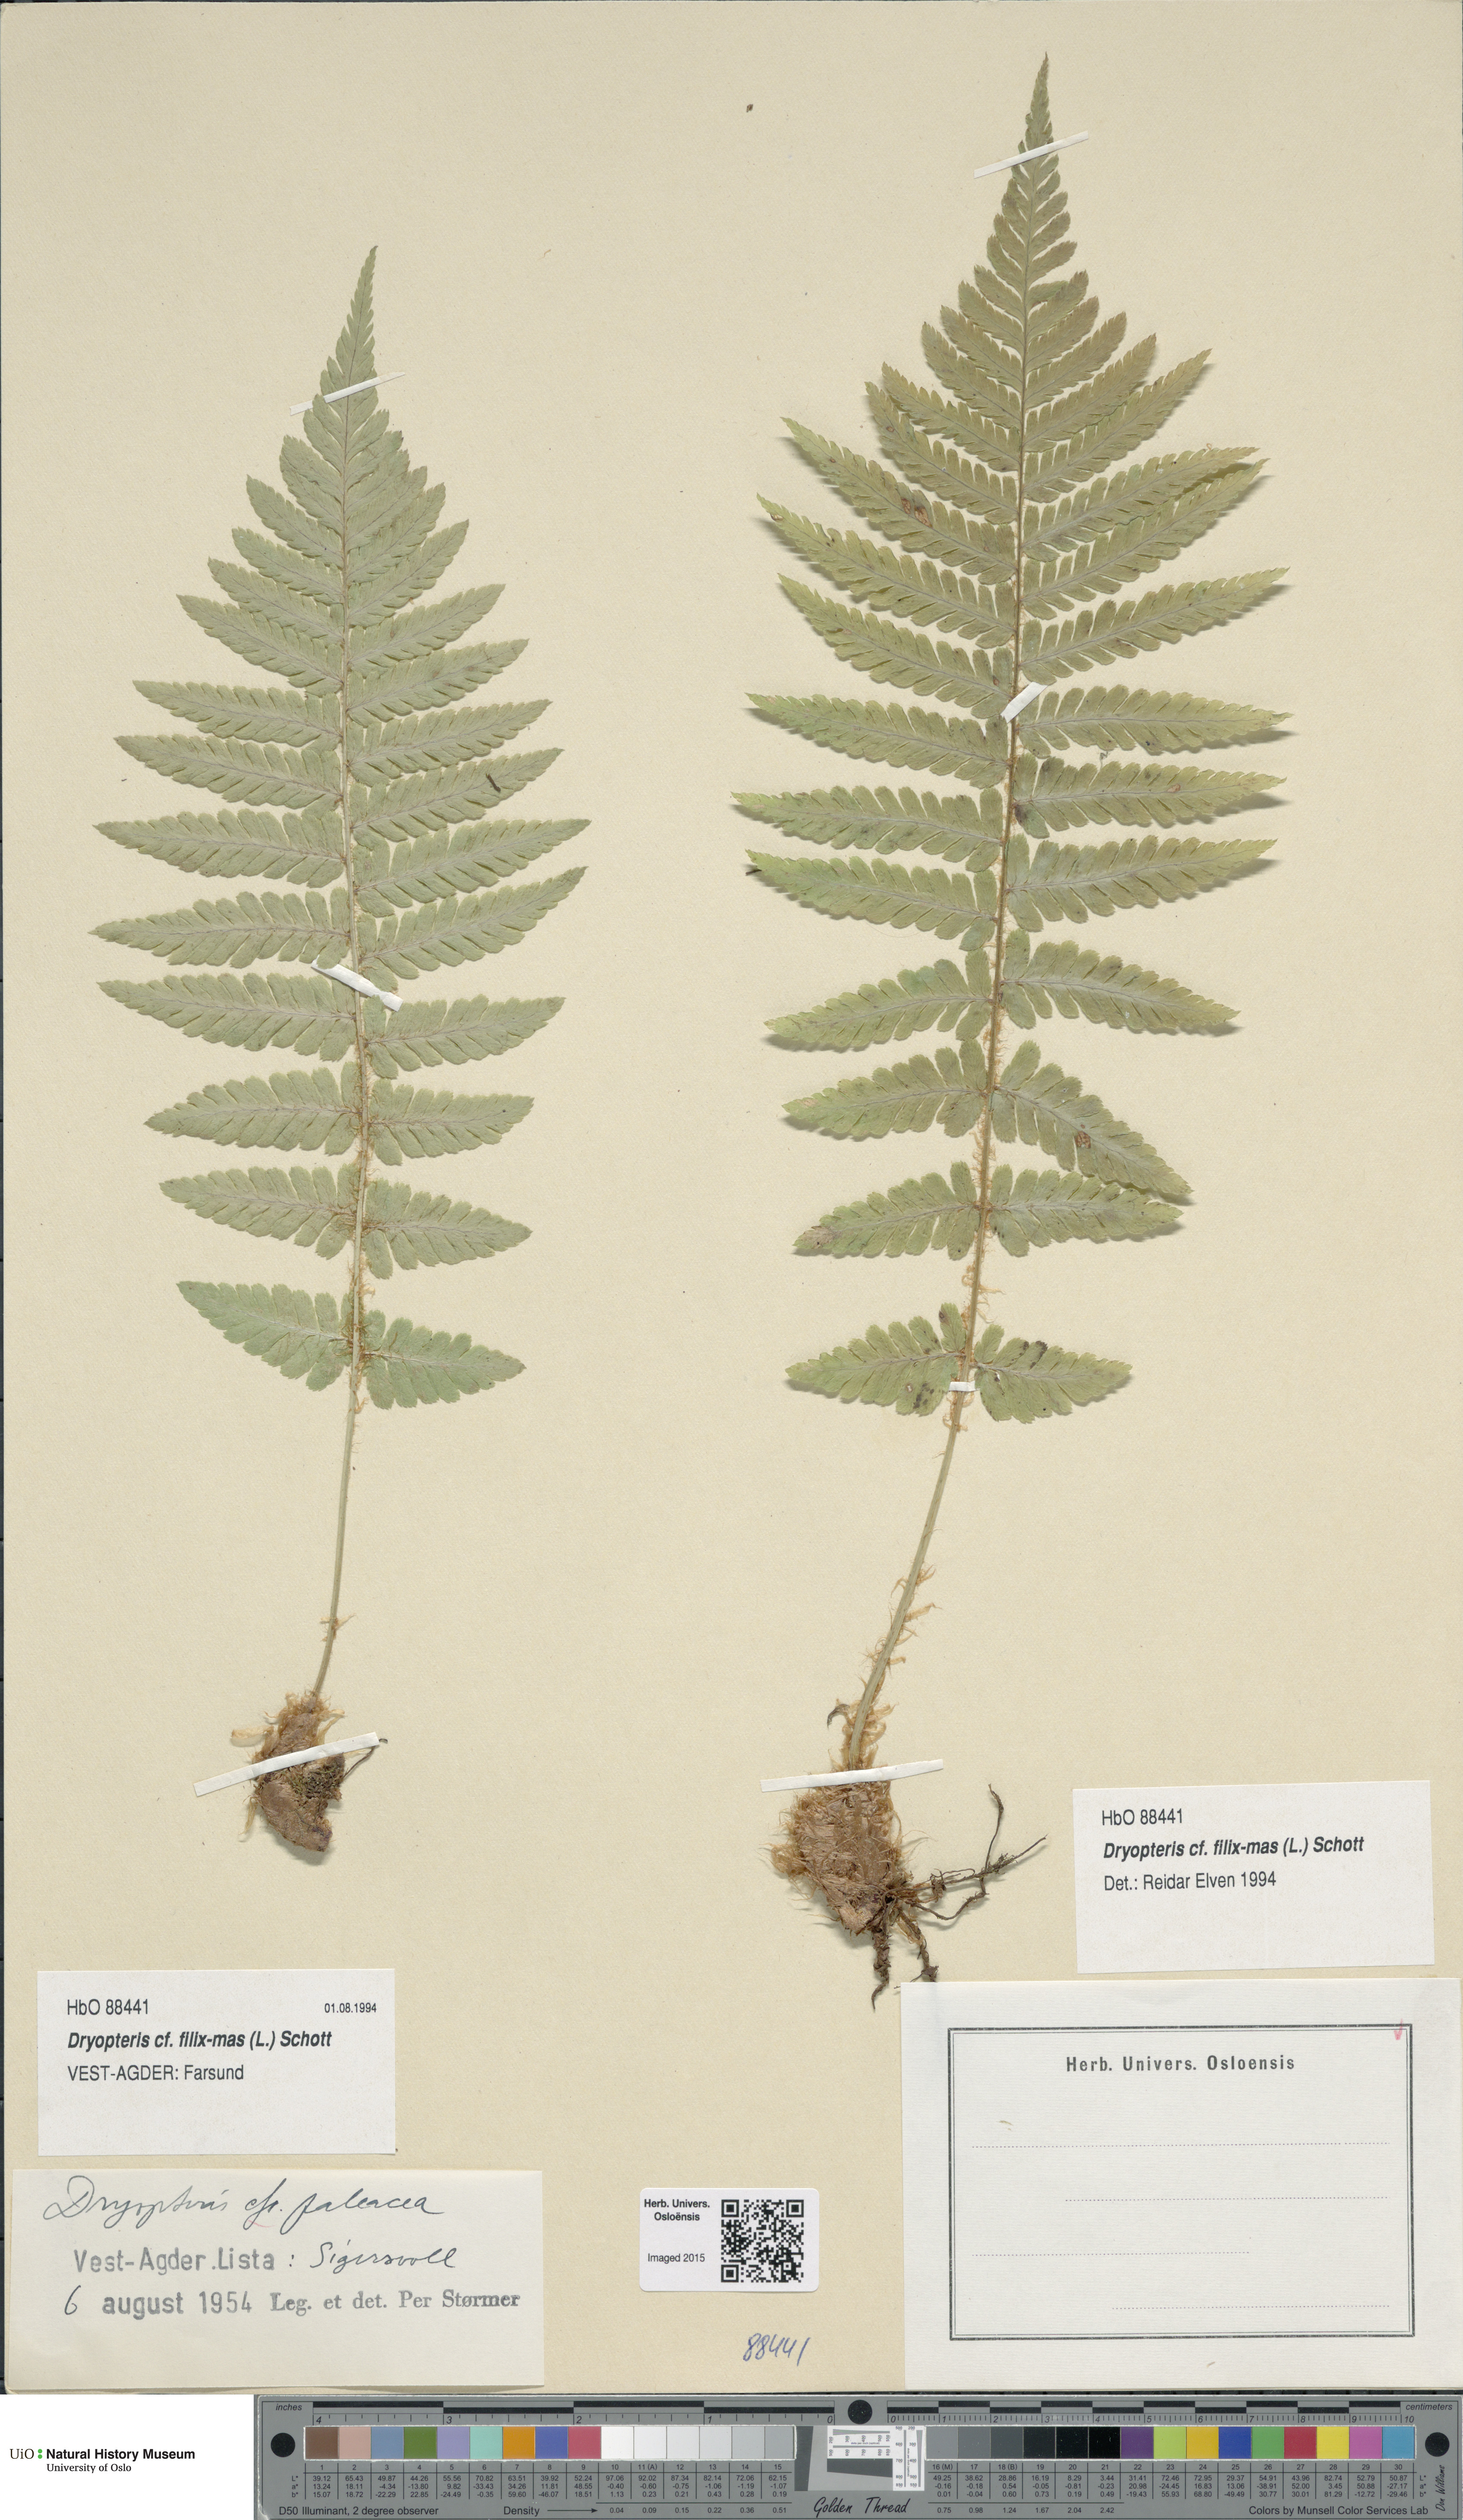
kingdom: Plantae
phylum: Tracheophyta
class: Polypodiopsida
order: Polypodiales
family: Dryopteridaceae
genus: Dryopteris
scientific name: Dryopteris filix-mas
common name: Male fern
